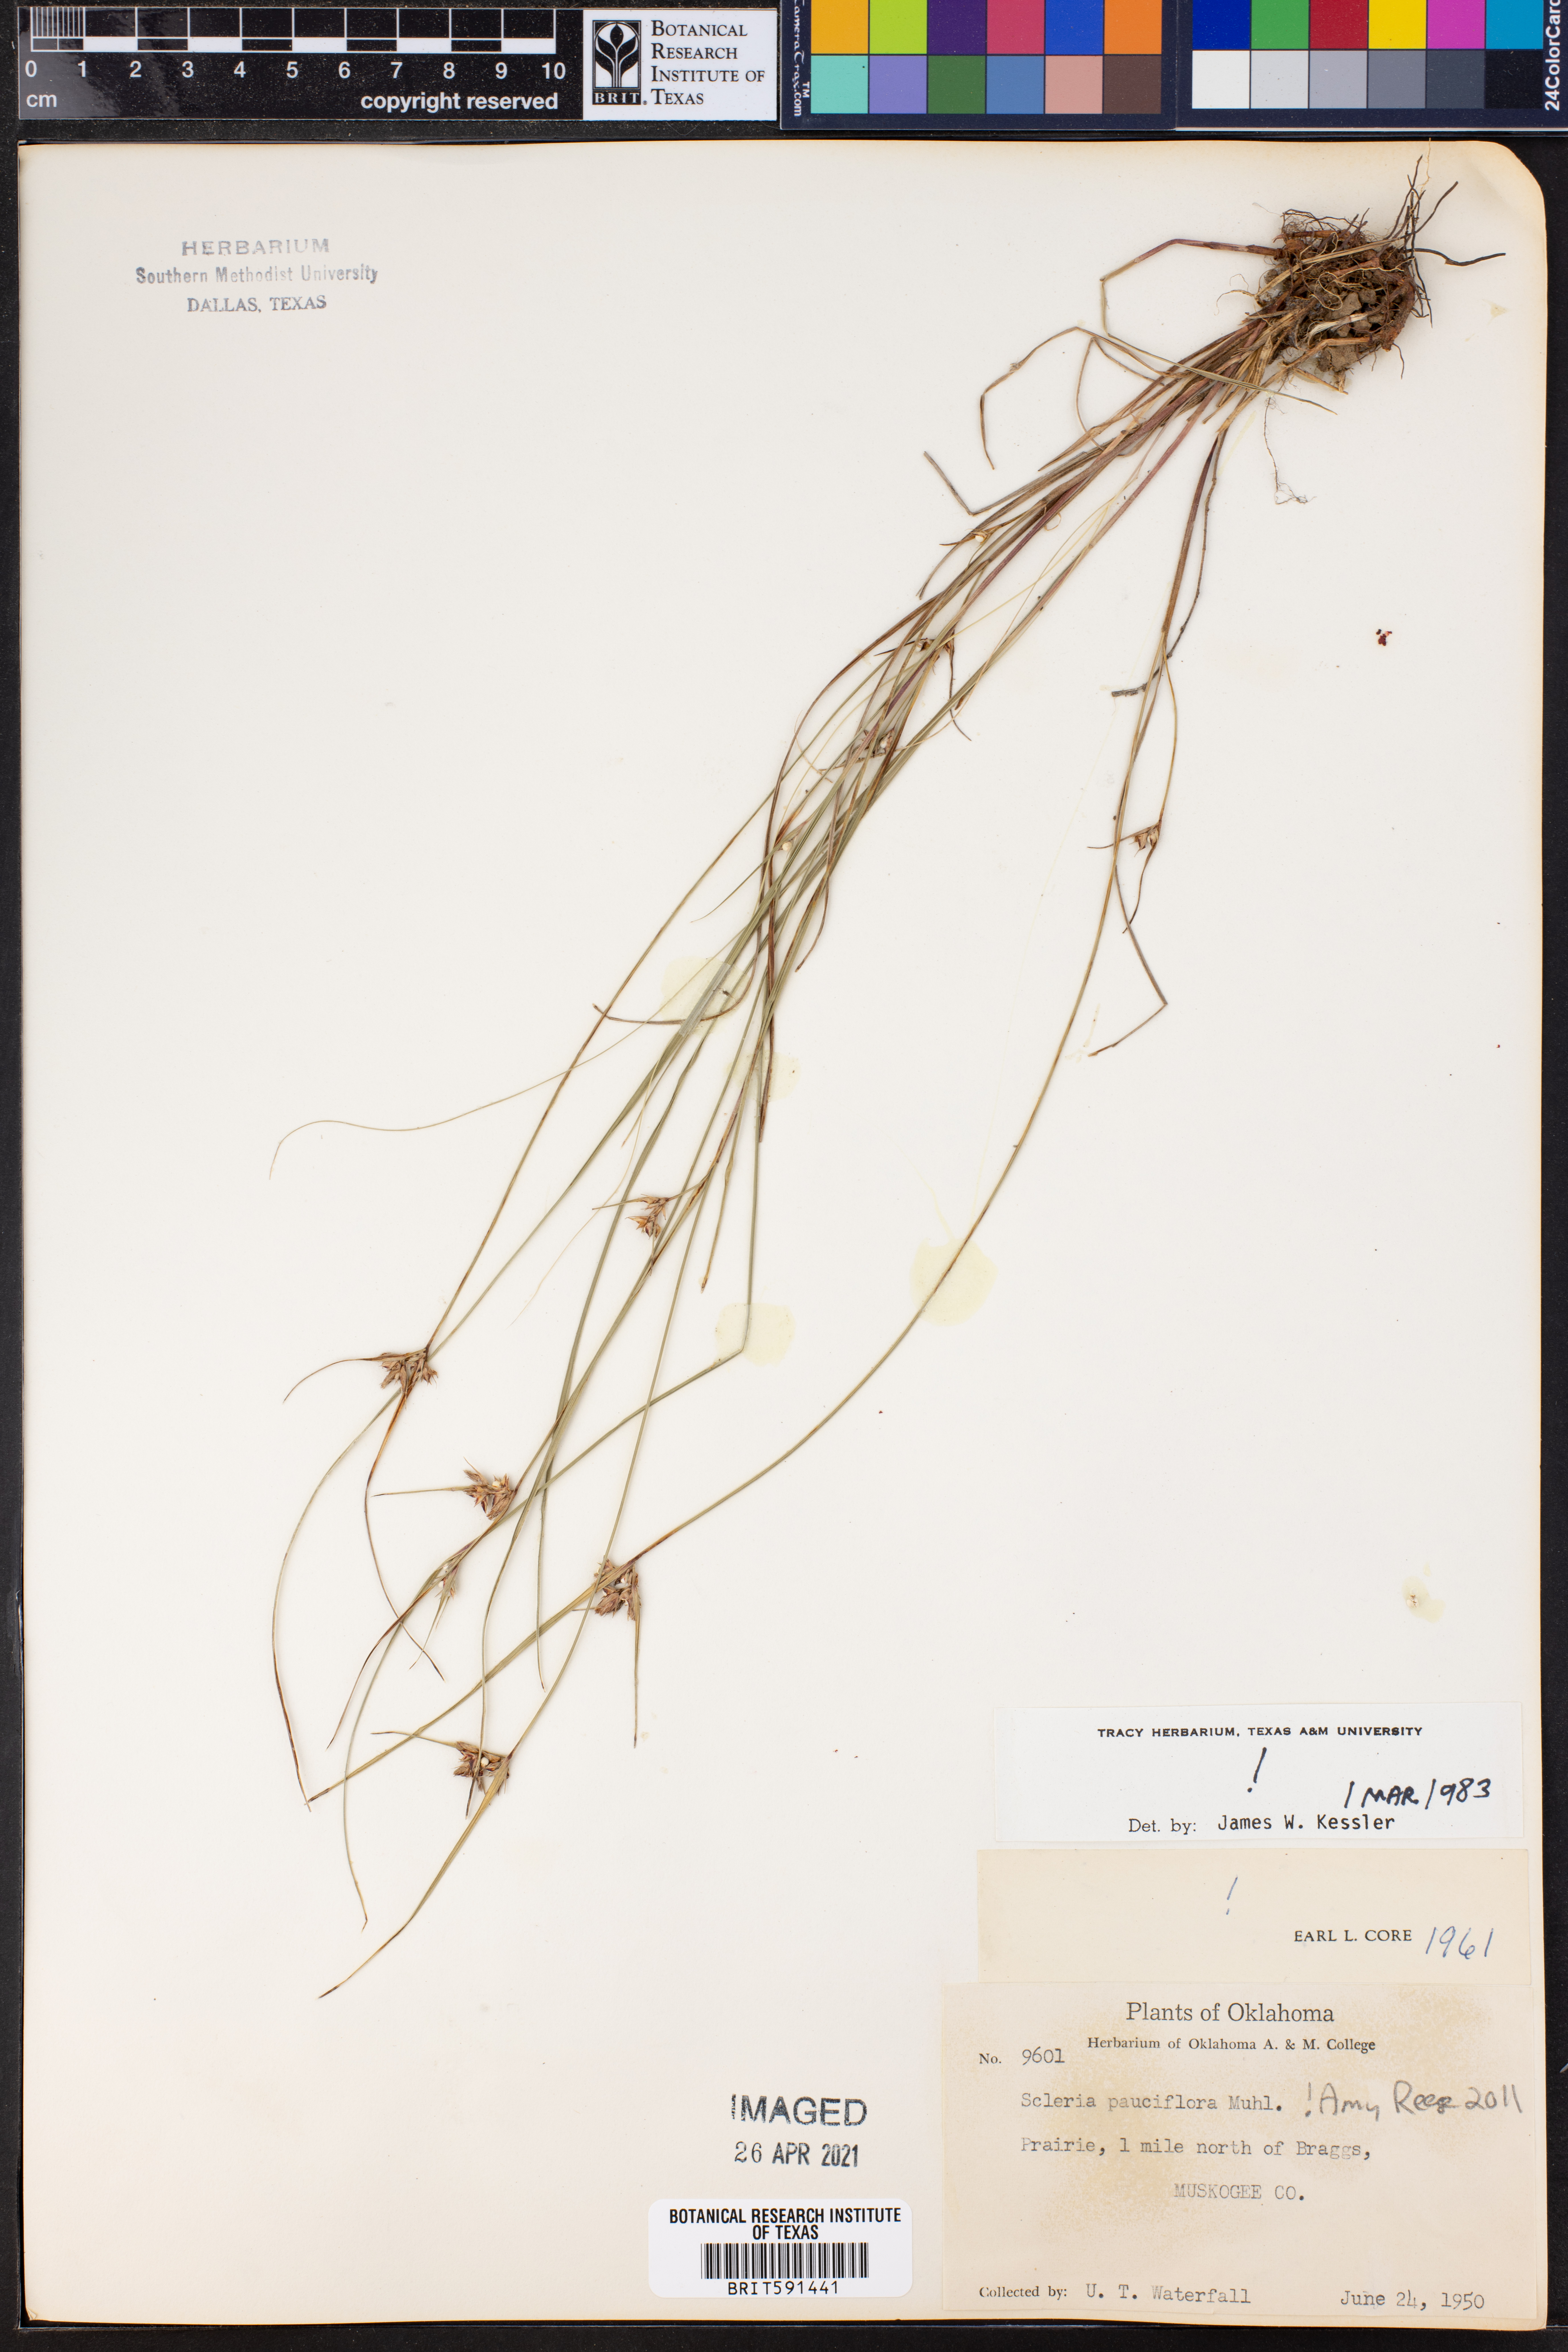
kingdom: Plantae
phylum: Tracheophyta
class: Liliopsida
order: Poales
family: Cyperaceae
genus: Scleria
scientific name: Scleria pauciflora
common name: Few-flowered nutrush
